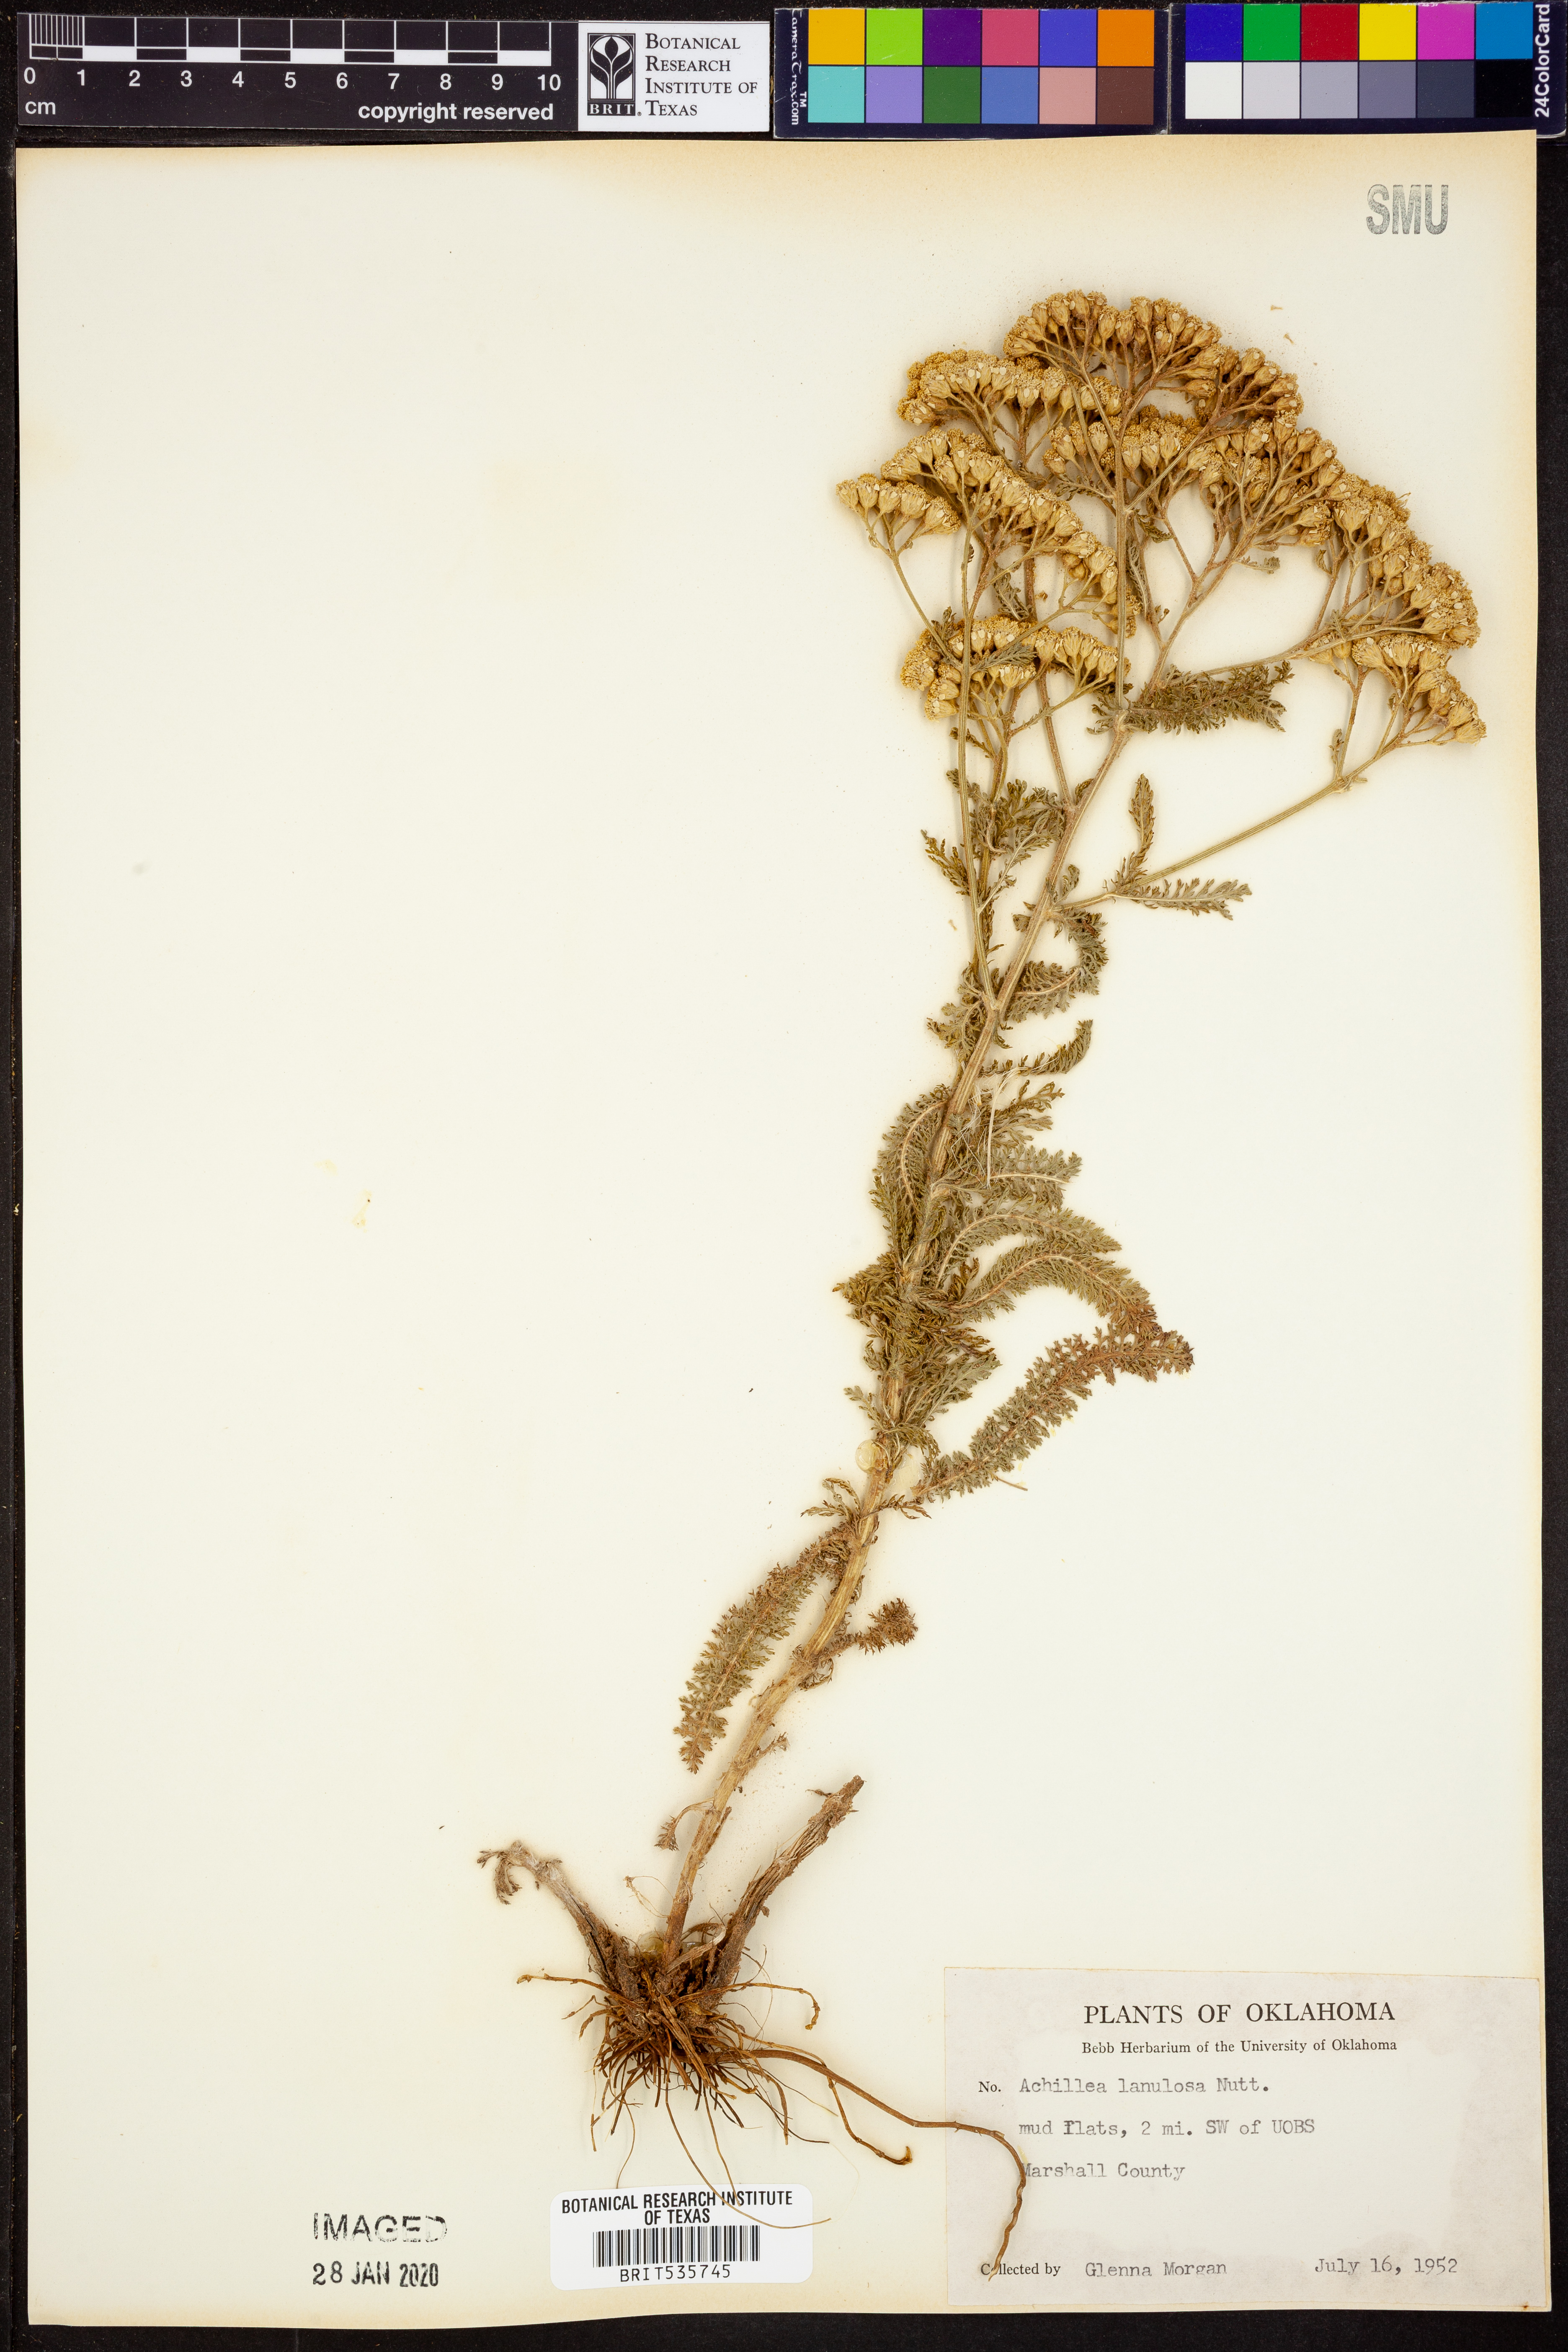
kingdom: Plantae
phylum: Tracheophyta
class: Magnoliopsida
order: Asterales
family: Asteraceae
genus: Achillea
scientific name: Achillea millefolium
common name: Yarrow
